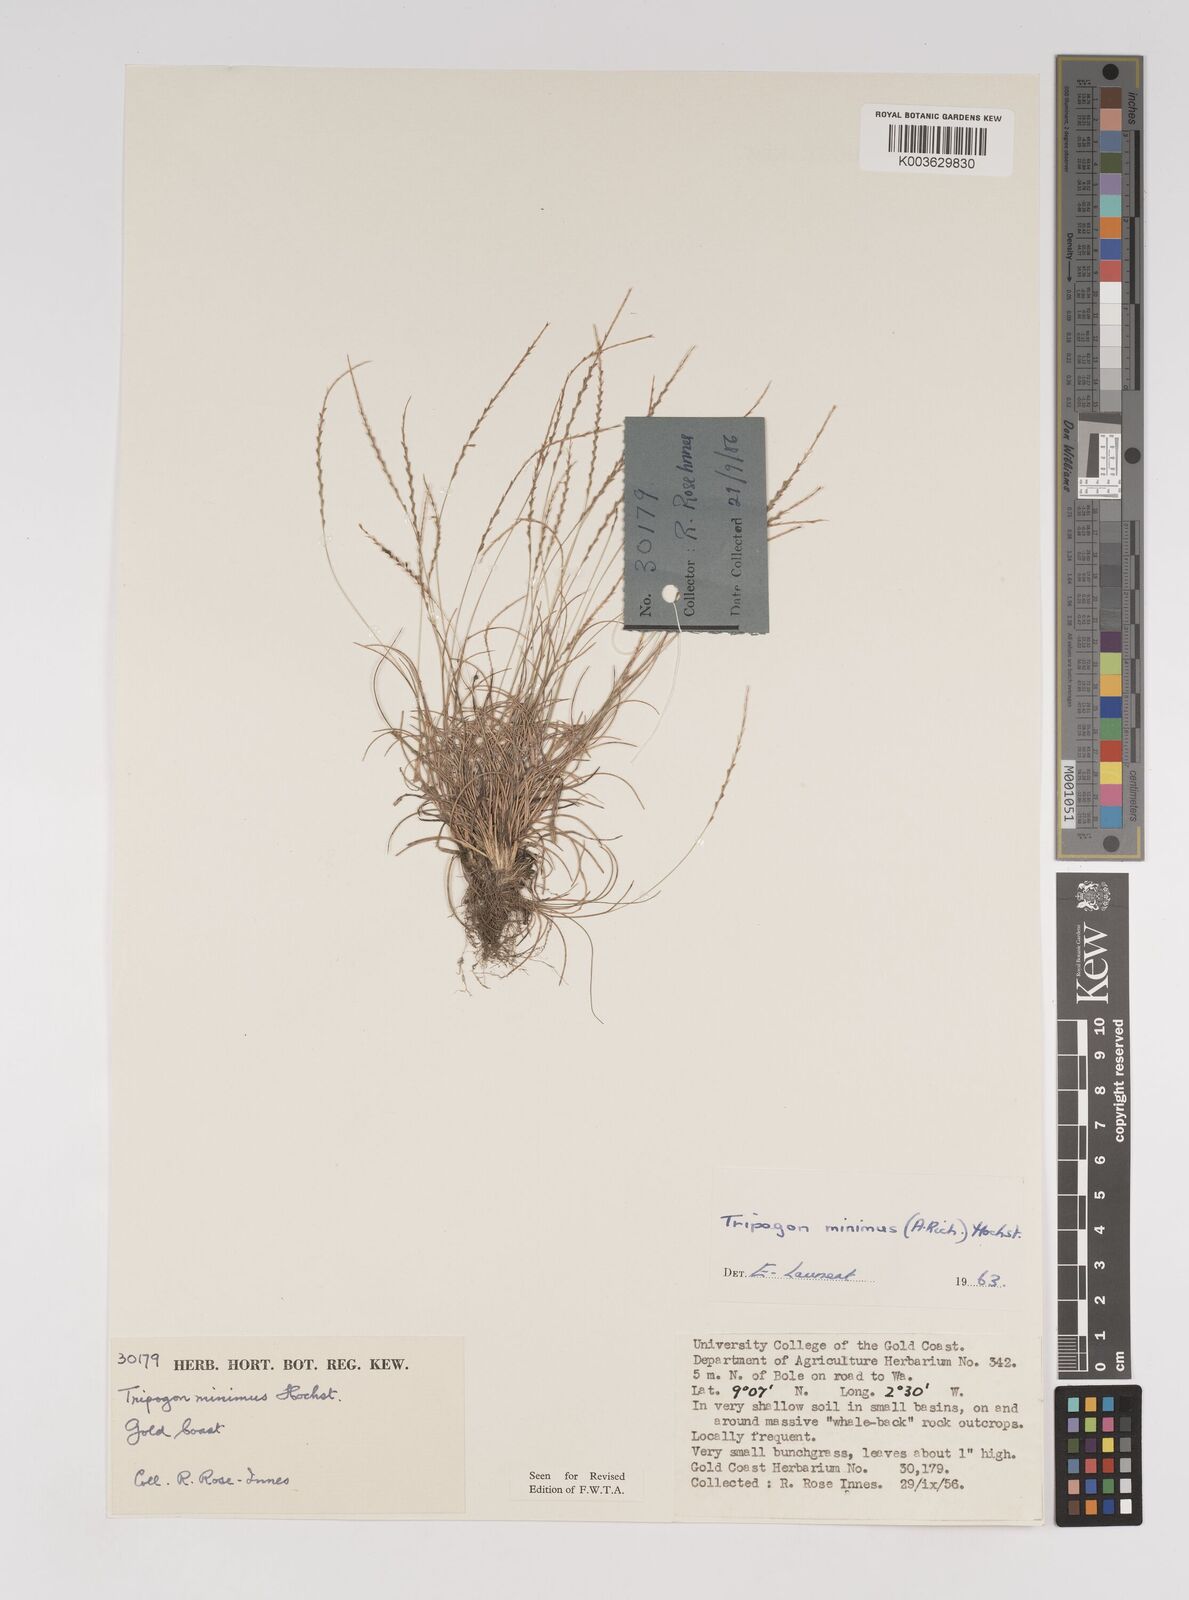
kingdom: Plantae
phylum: Tracheophyta
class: Liliopsida
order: Poales
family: Poaceae
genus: Tripogonella
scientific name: Tripogonella minima
